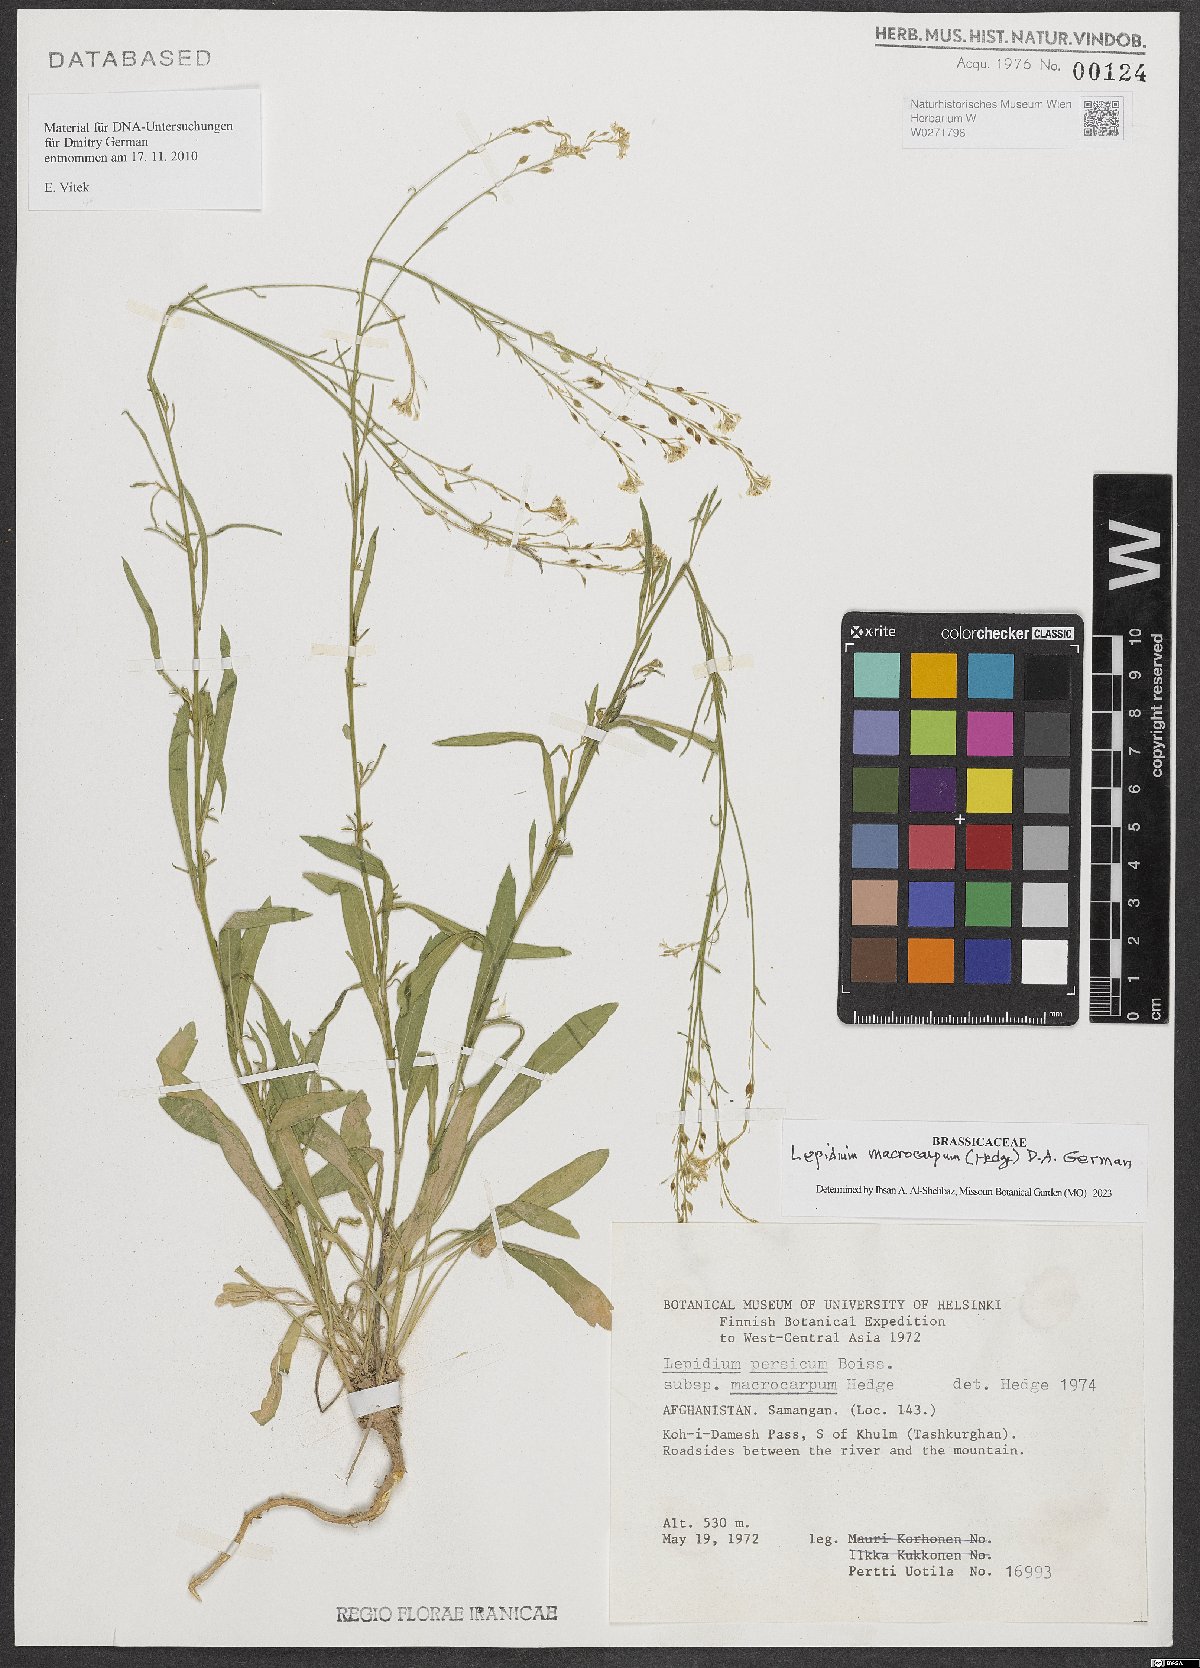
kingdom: Plantae
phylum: Tracheophyta
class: Magnoliopsida
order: Brassicales
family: Brassicaceae
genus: Lepidium
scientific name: Lepidium macrocarpum
